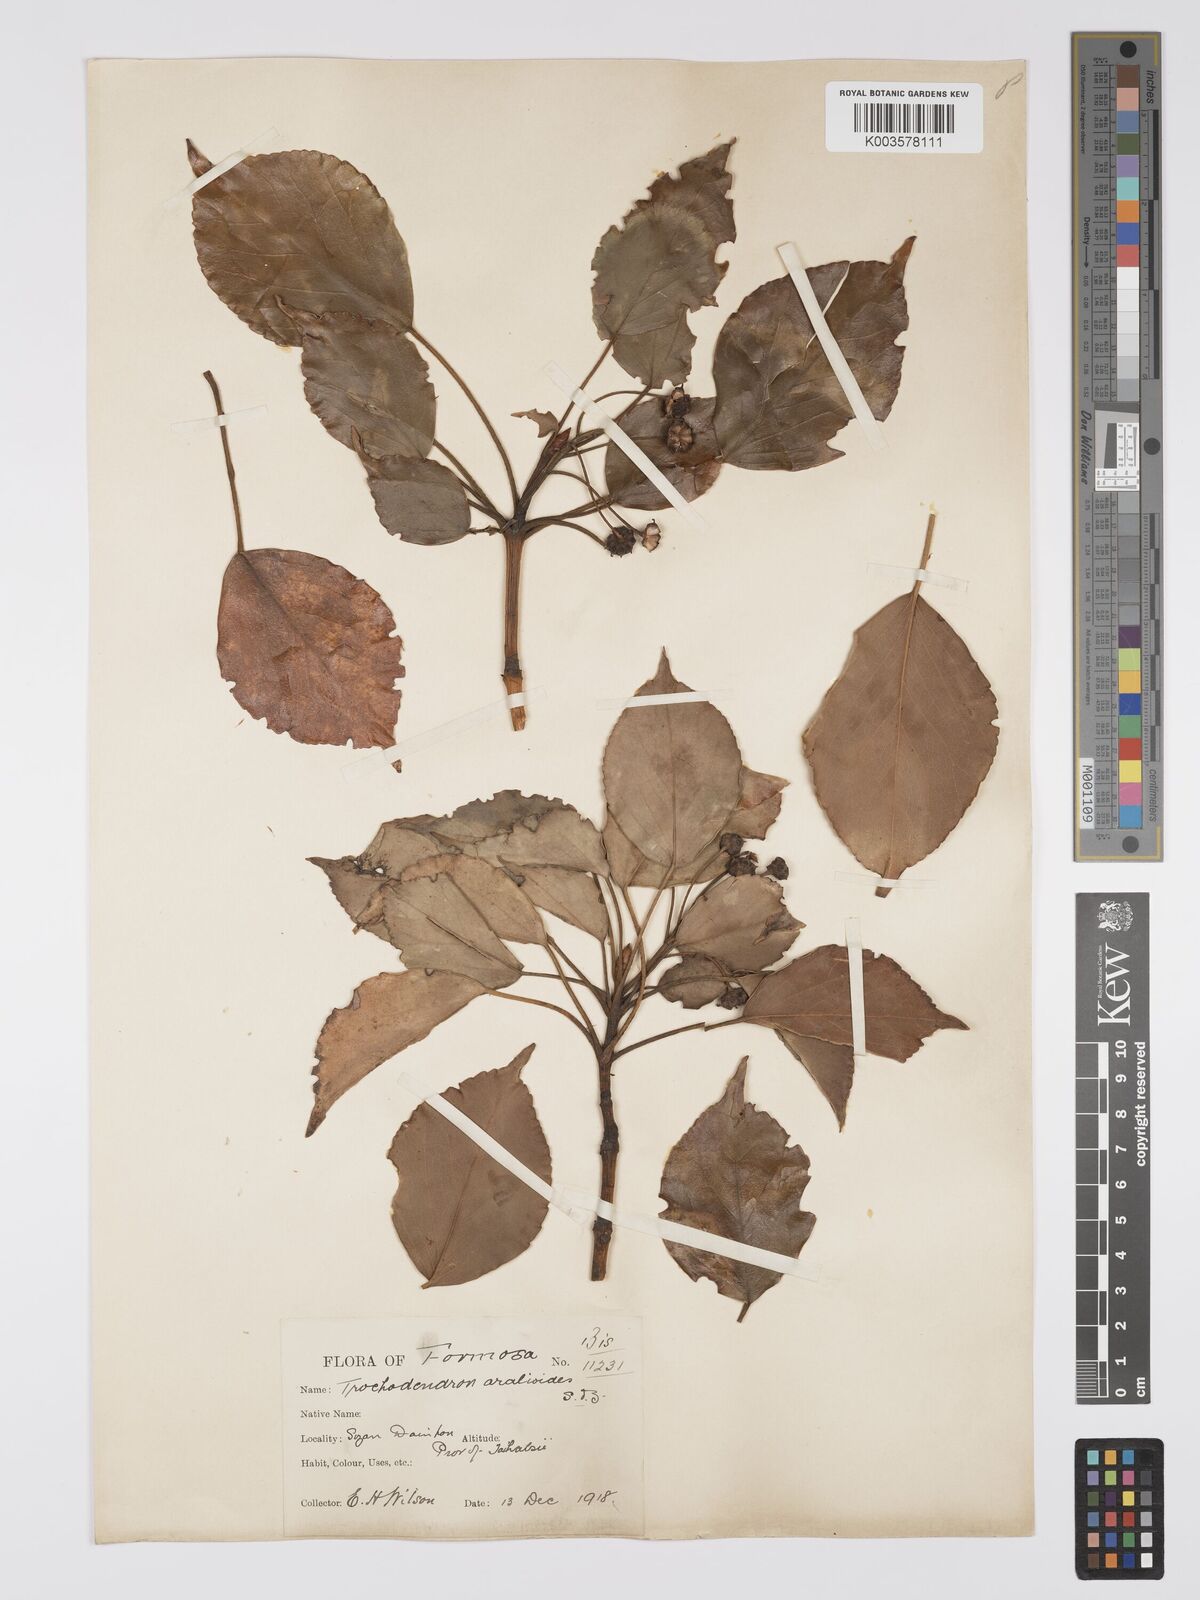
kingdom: Plantae
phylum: Tracheophyta
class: Magnoliopsida
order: Trochodendrales
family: Trochodendraceae
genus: Trochodendron
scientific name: Trochodendron
